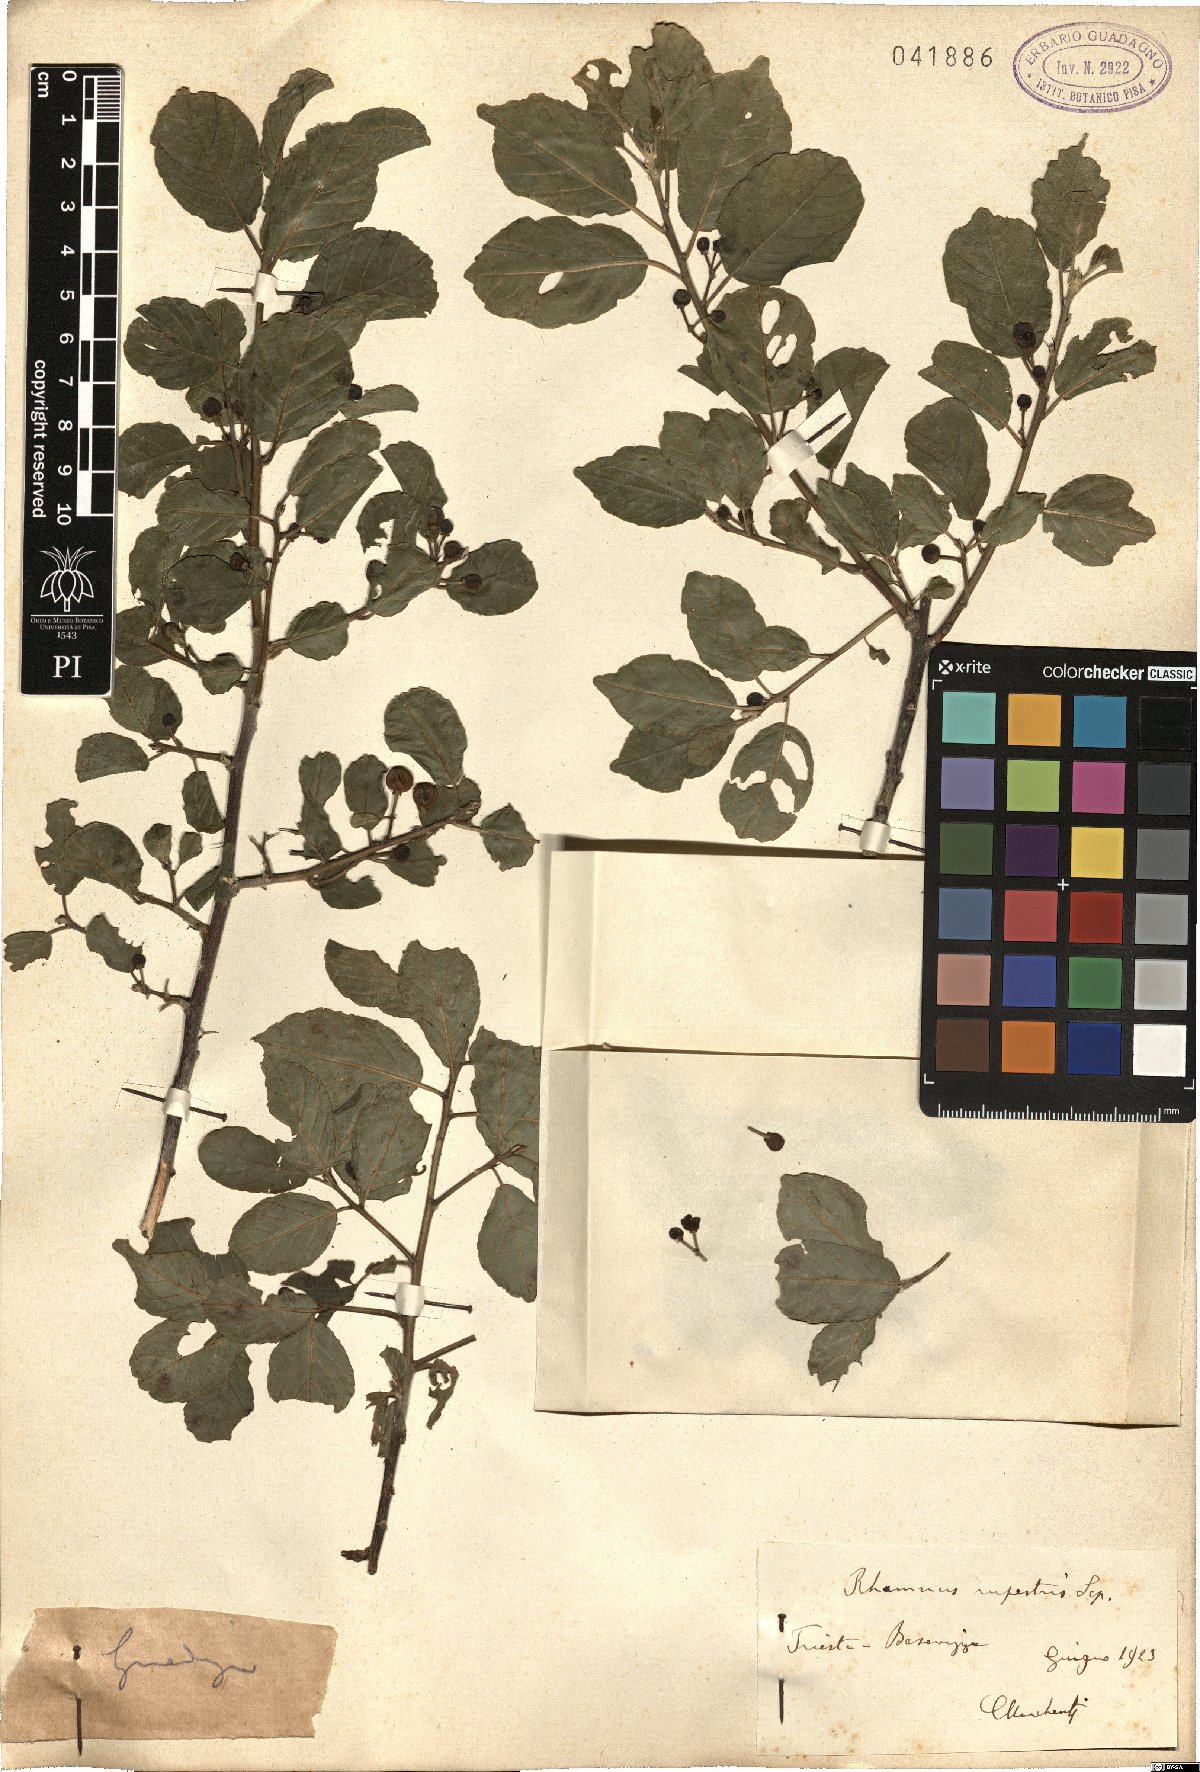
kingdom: Plantae
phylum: Tracheophyta
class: Magnoliopsida
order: Rosales
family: Rhamnaceae
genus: Frangula
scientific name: Frangula rupestris
